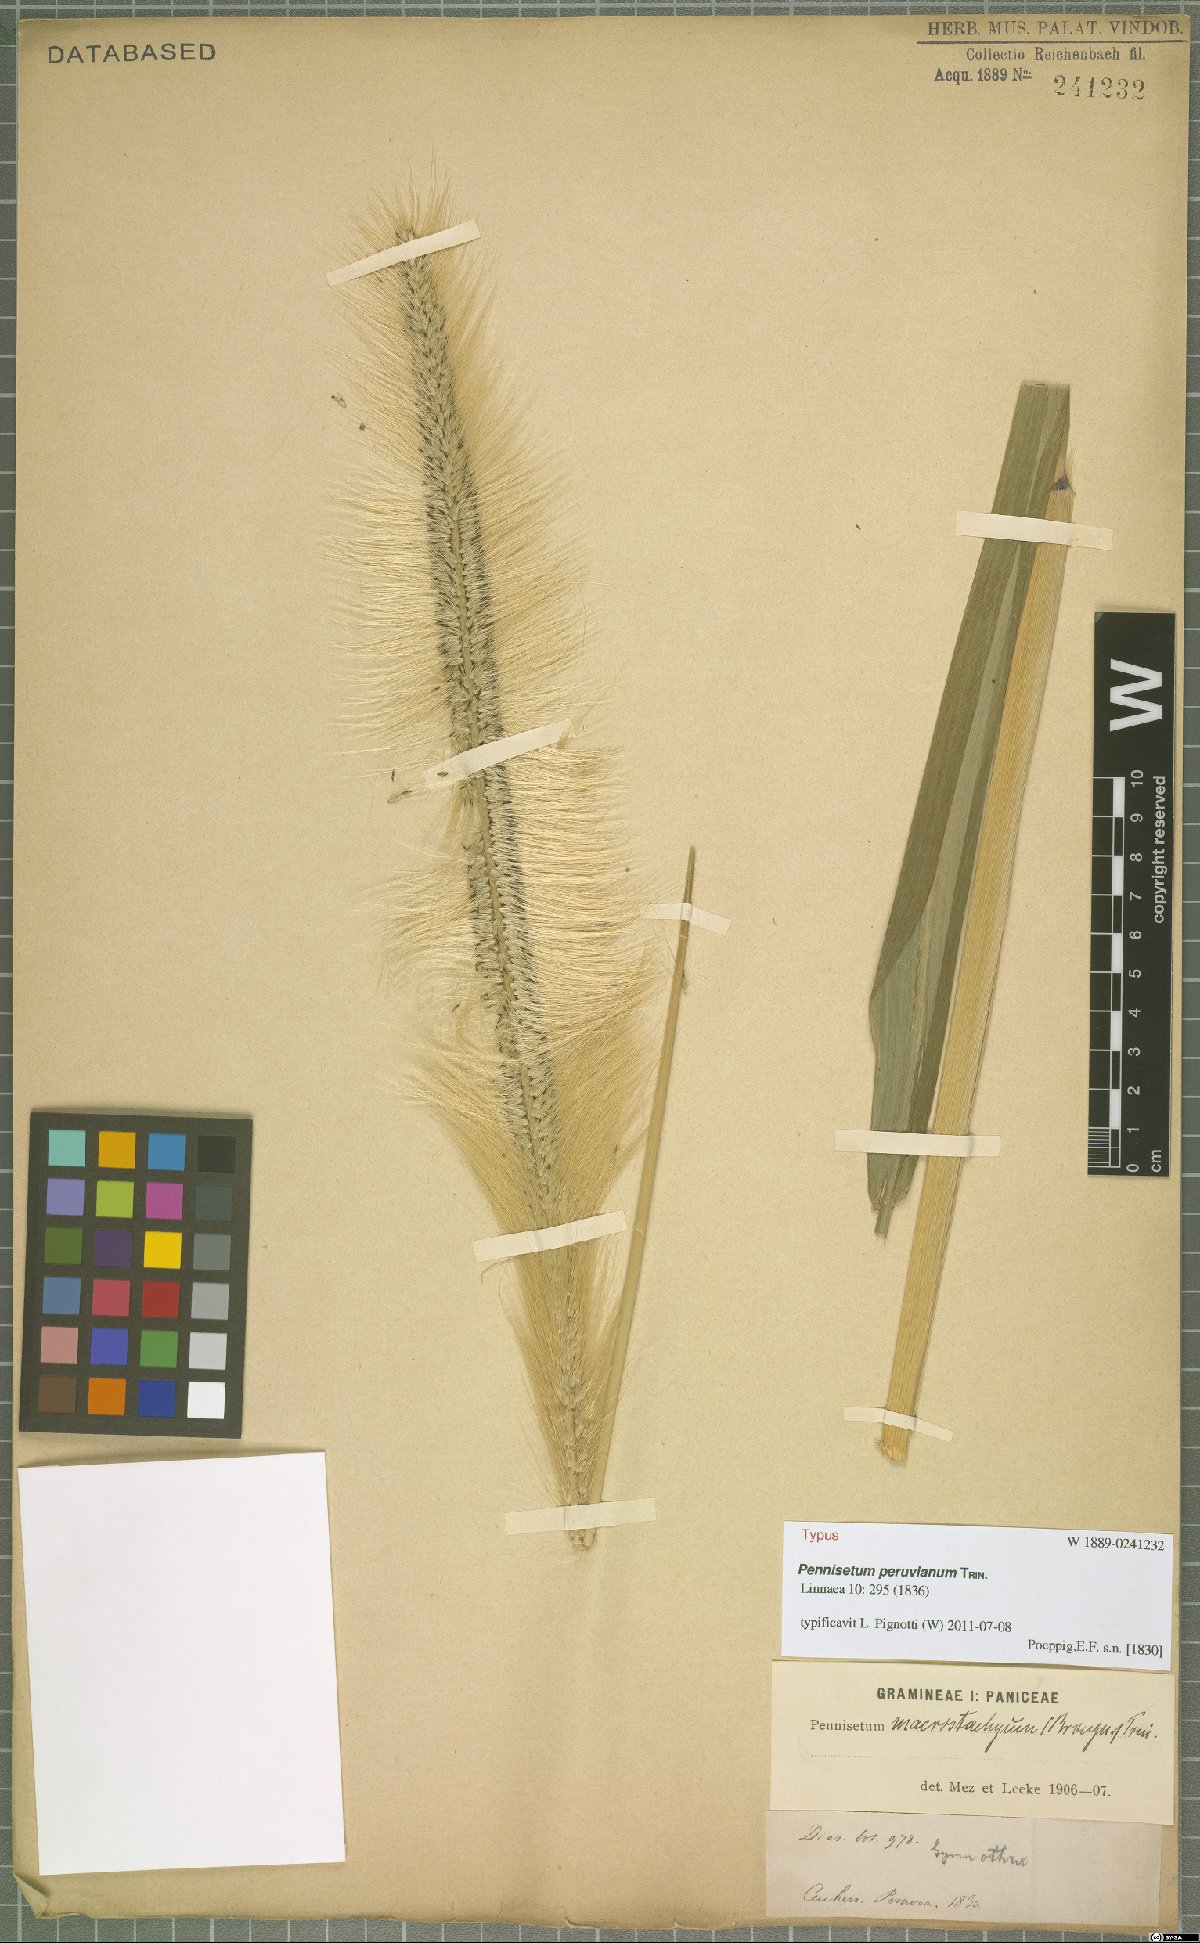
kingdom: Plantae
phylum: Tracheophyta
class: Liliopsida
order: Poales
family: Poaceae
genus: Cenchrus
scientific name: Cenchrus peruvianus
